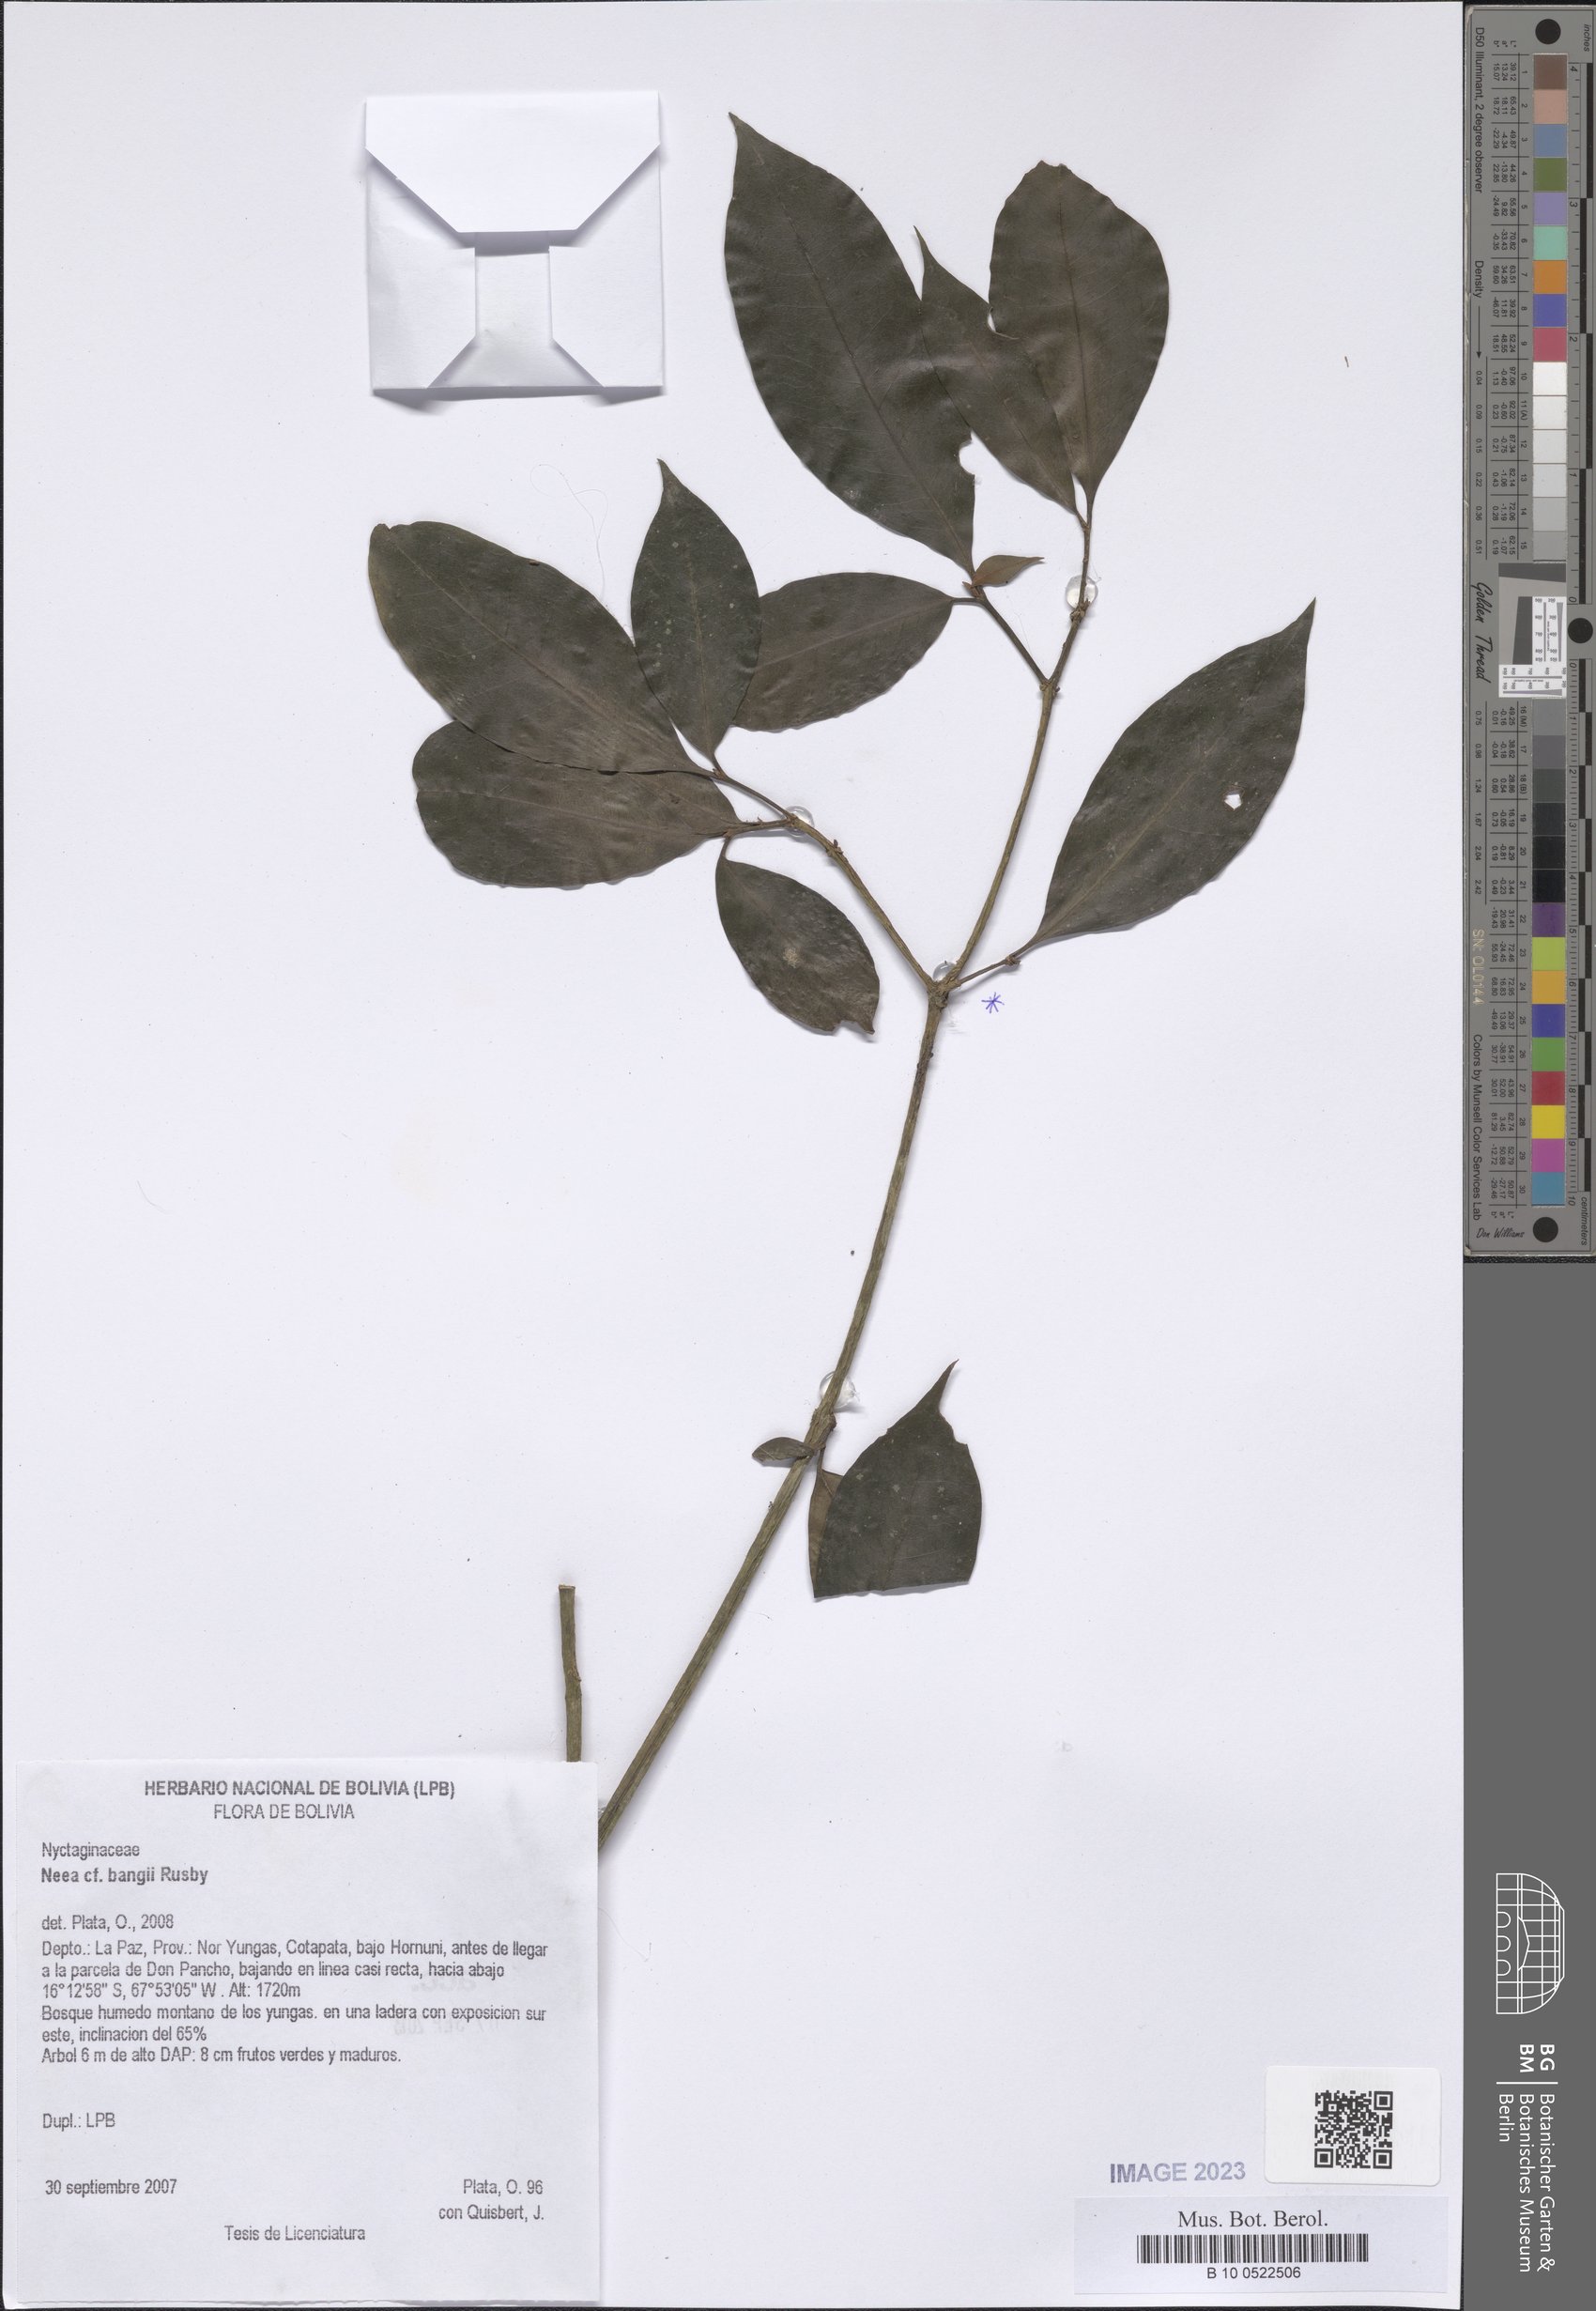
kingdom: Plantae
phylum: Tracheophyta
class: Magnoliopsida
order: Caryophyllales
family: Nyctaginaceae
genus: Neea
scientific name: Neea bangii
